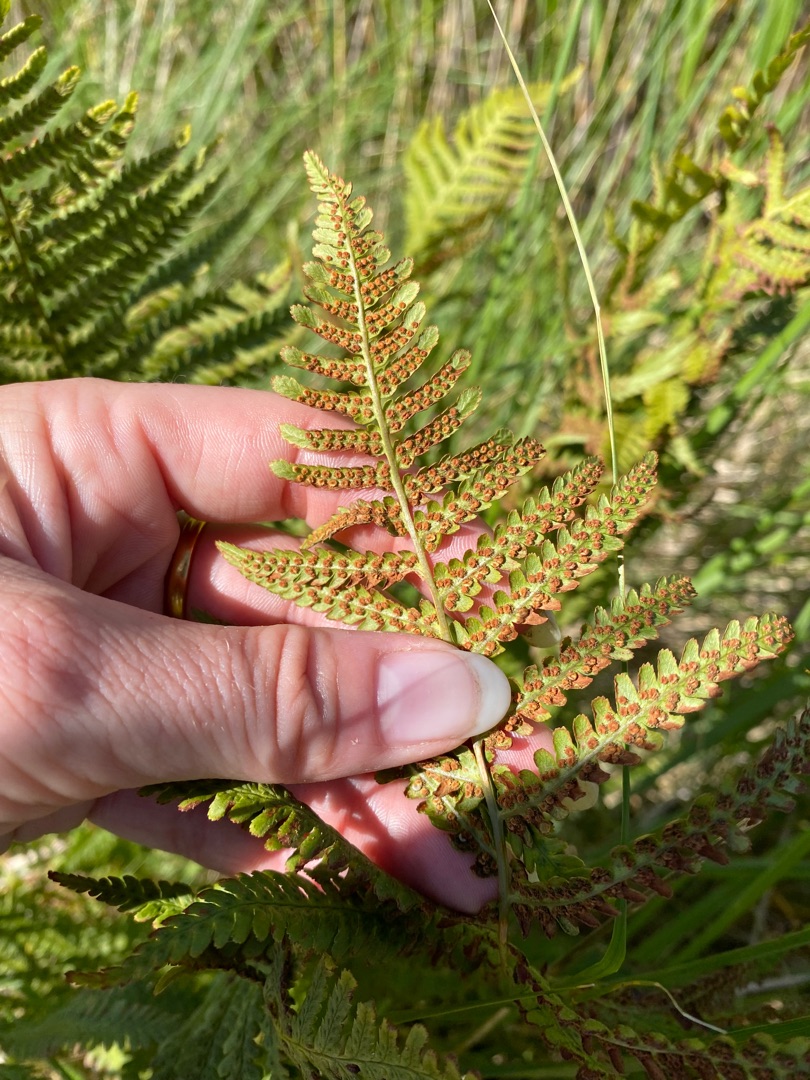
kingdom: Plantae
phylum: Tracheophyta
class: Polypodiopsida
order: Polypodiales
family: Dryopteridaceae
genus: Dryopteris
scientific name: Dryopteris filix-mas
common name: Almindelig mangeløv
